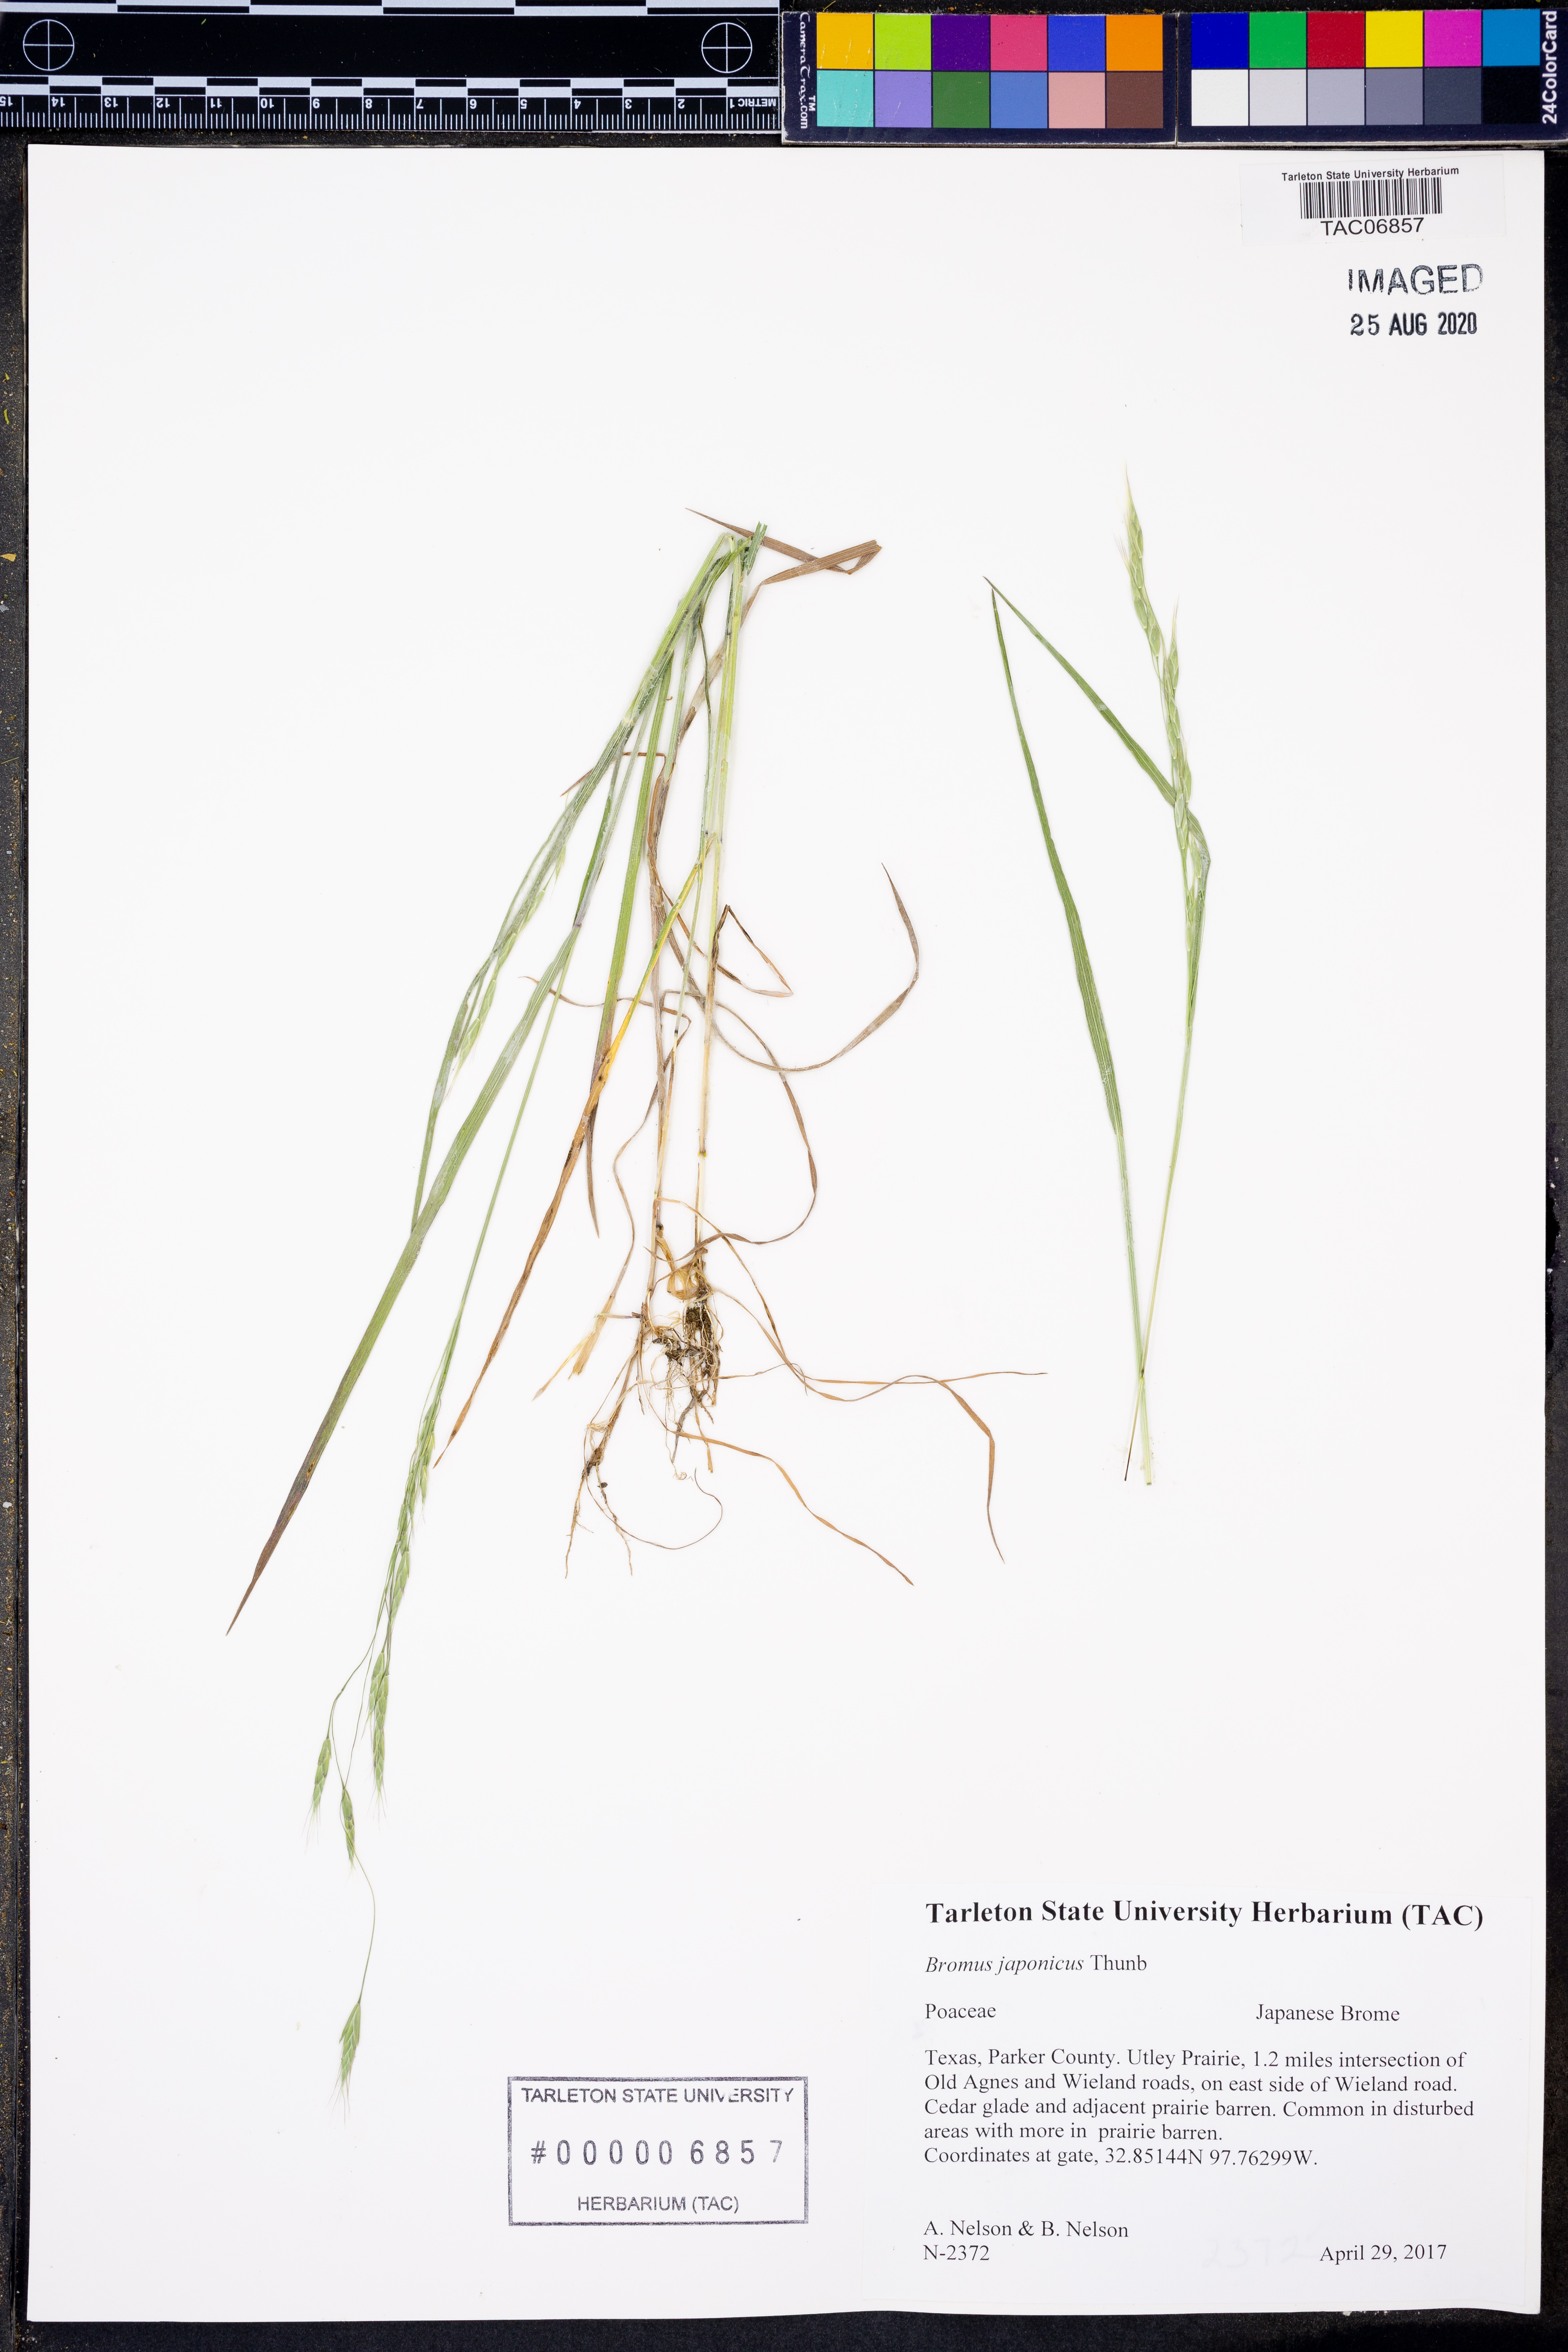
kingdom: Plantae
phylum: Tracheophyta
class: Liliopsida
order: Poales
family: Poaceae
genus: Bromus
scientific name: Bromus japonicus
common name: Japanese brome
